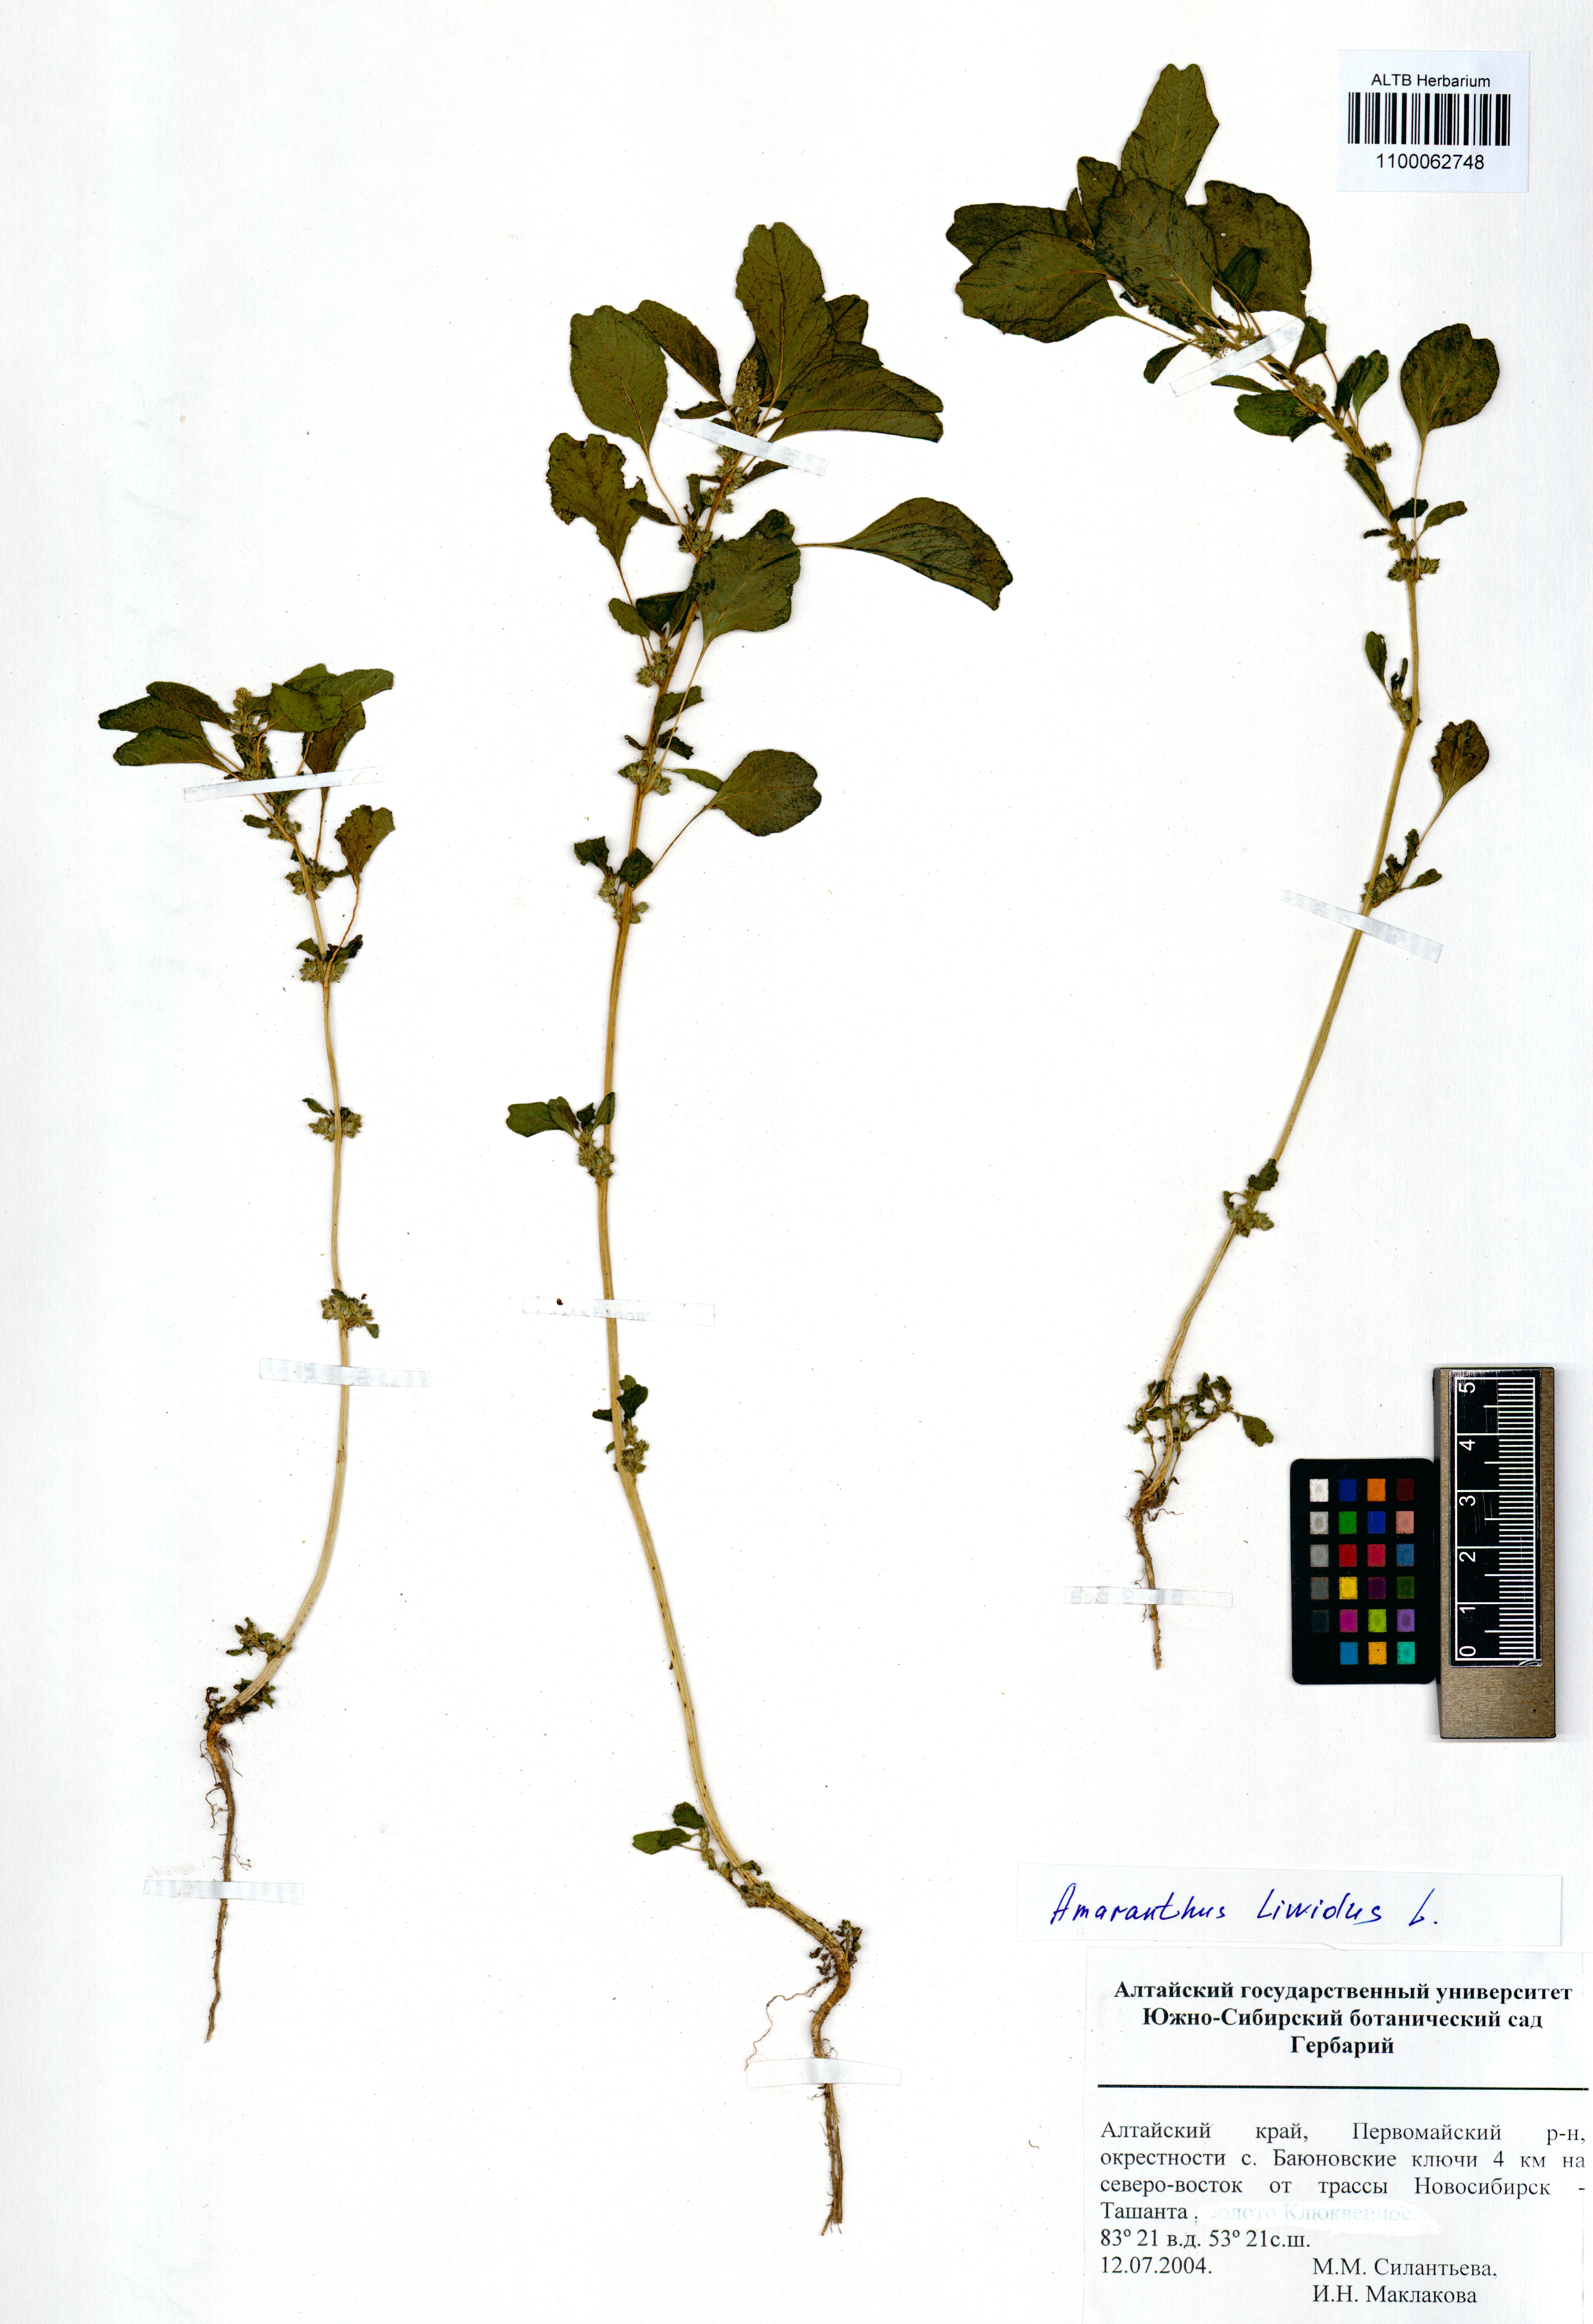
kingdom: Plantae
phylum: Tracheophyta
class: Magnoliopsida
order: Caryophyllales
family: Amaranthaceae
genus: Amaranthus
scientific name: Amaranthus blitum
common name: Purple amaranth
